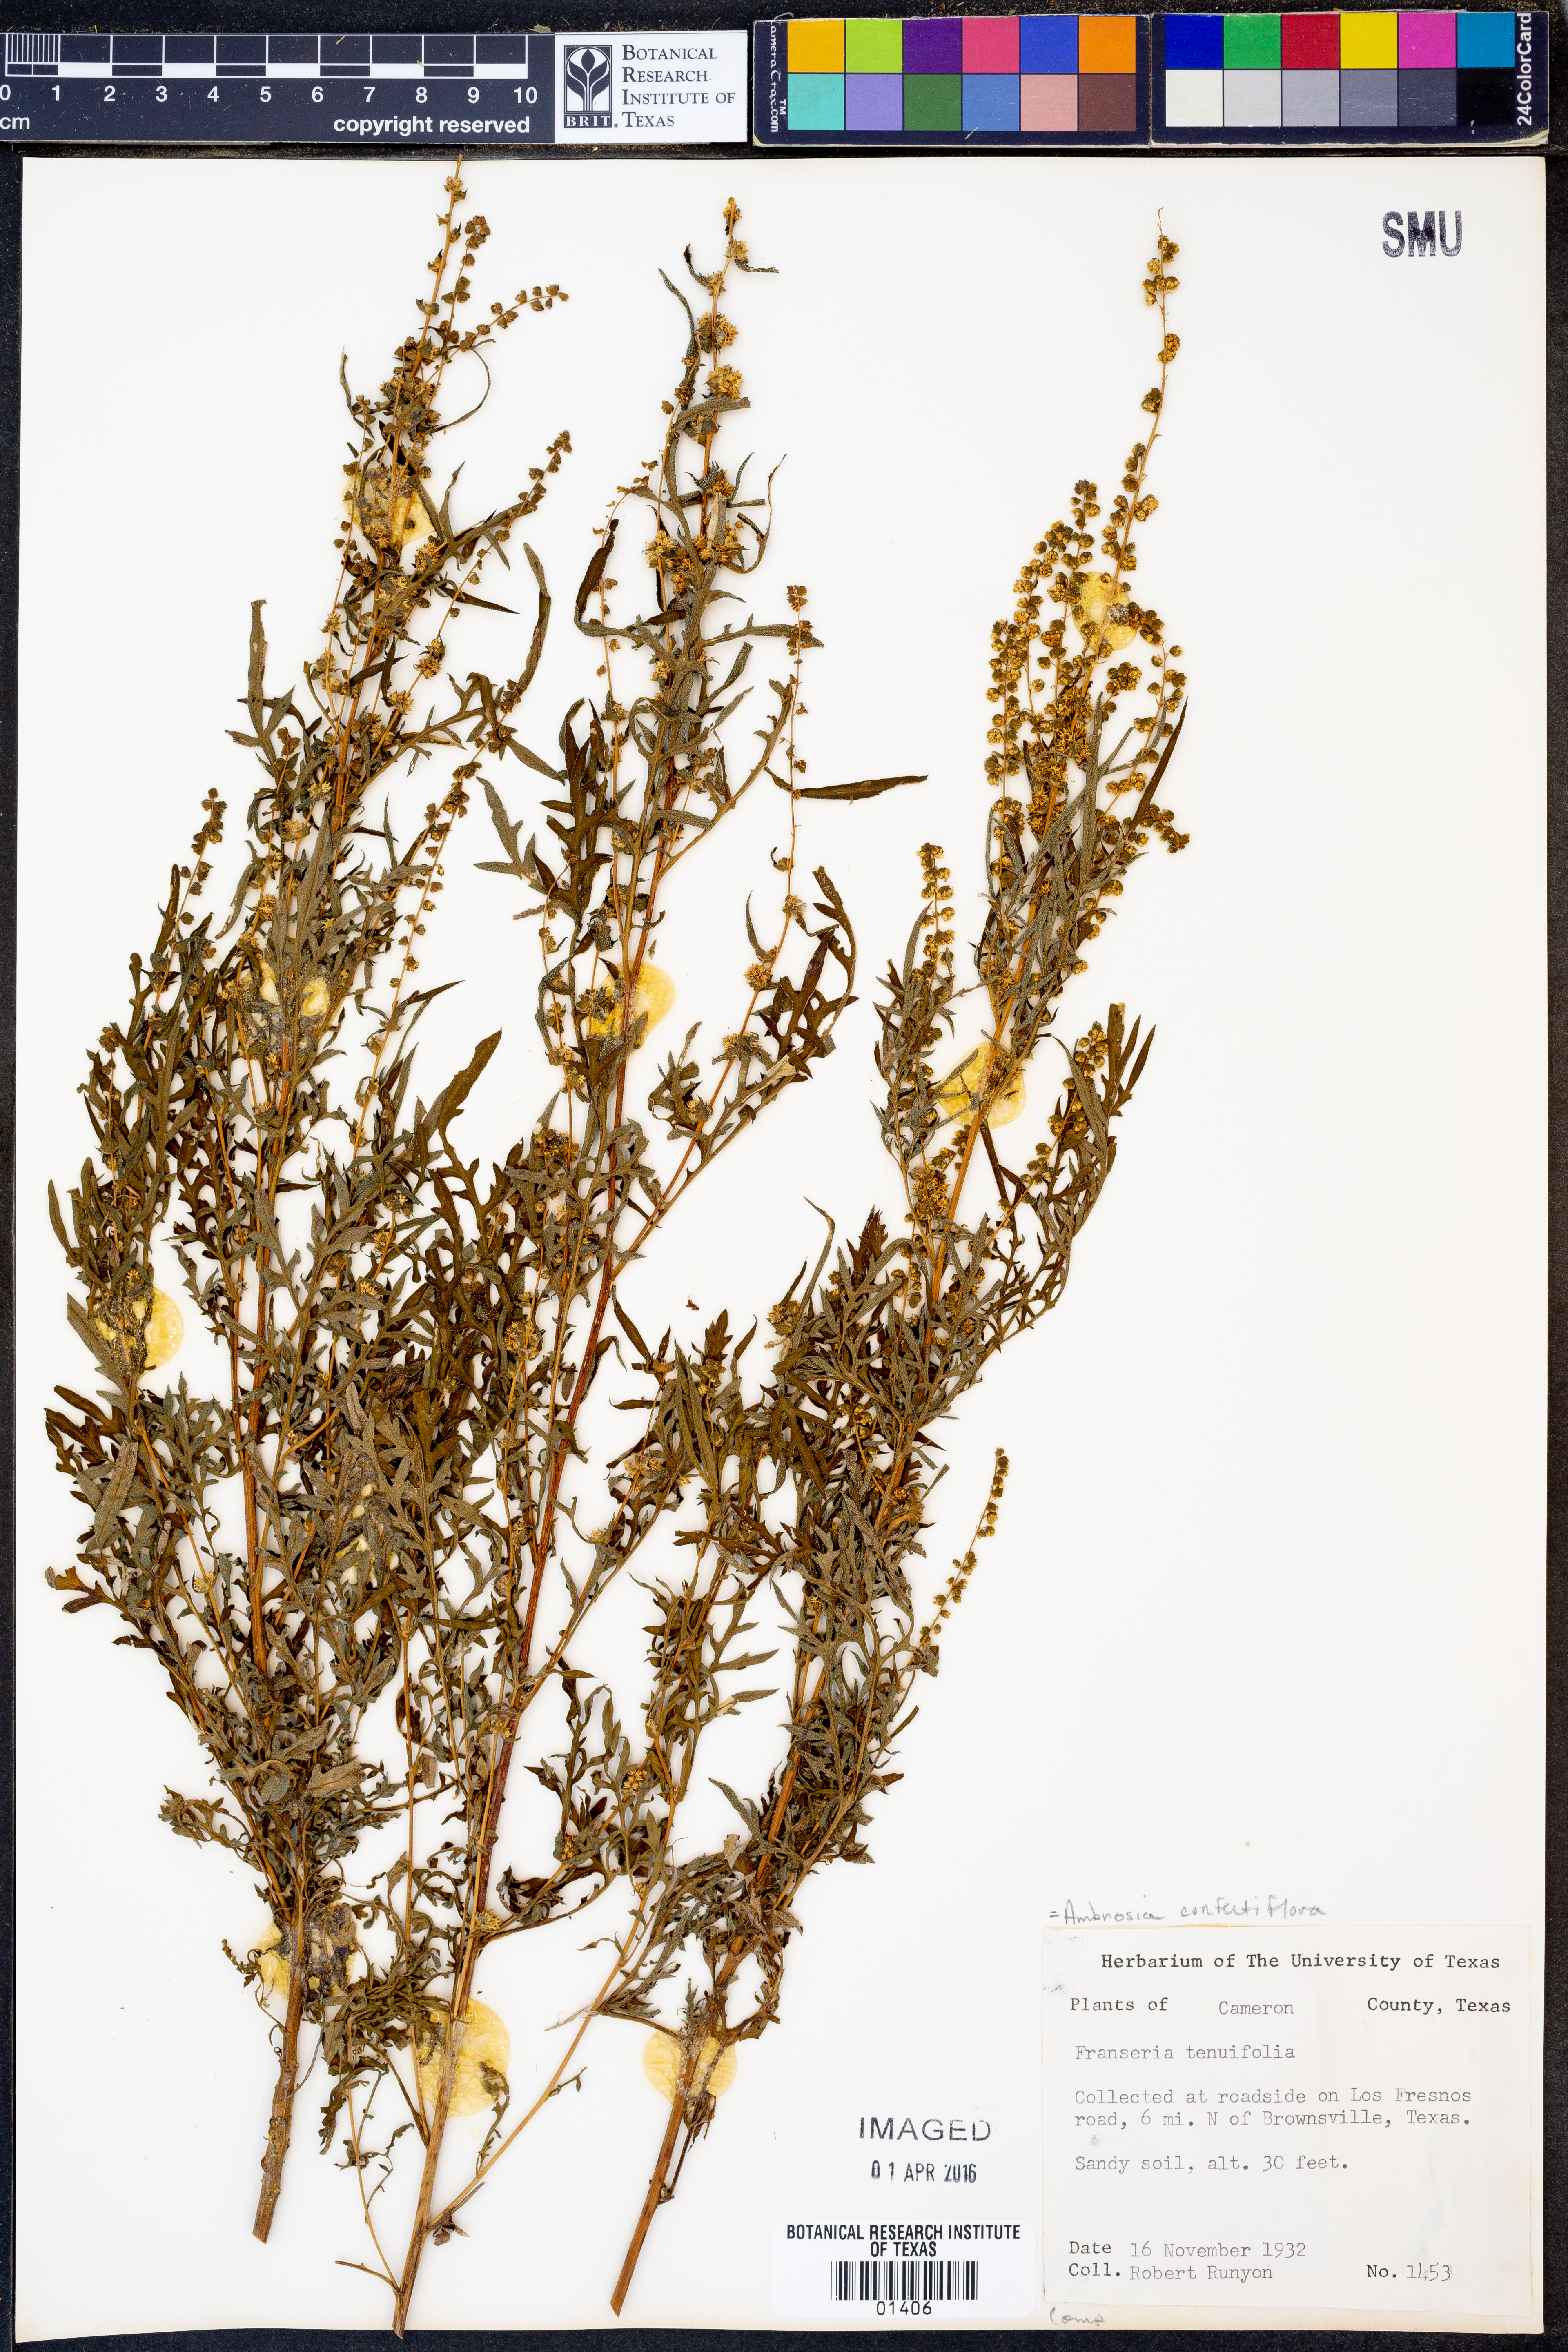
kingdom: Plantae
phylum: Tracheophyta
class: Magnoliopsida
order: Asterales
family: Asteraceae
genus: Ambrosia
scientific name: Ambrosia confertiflora
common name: Bur ragweed
